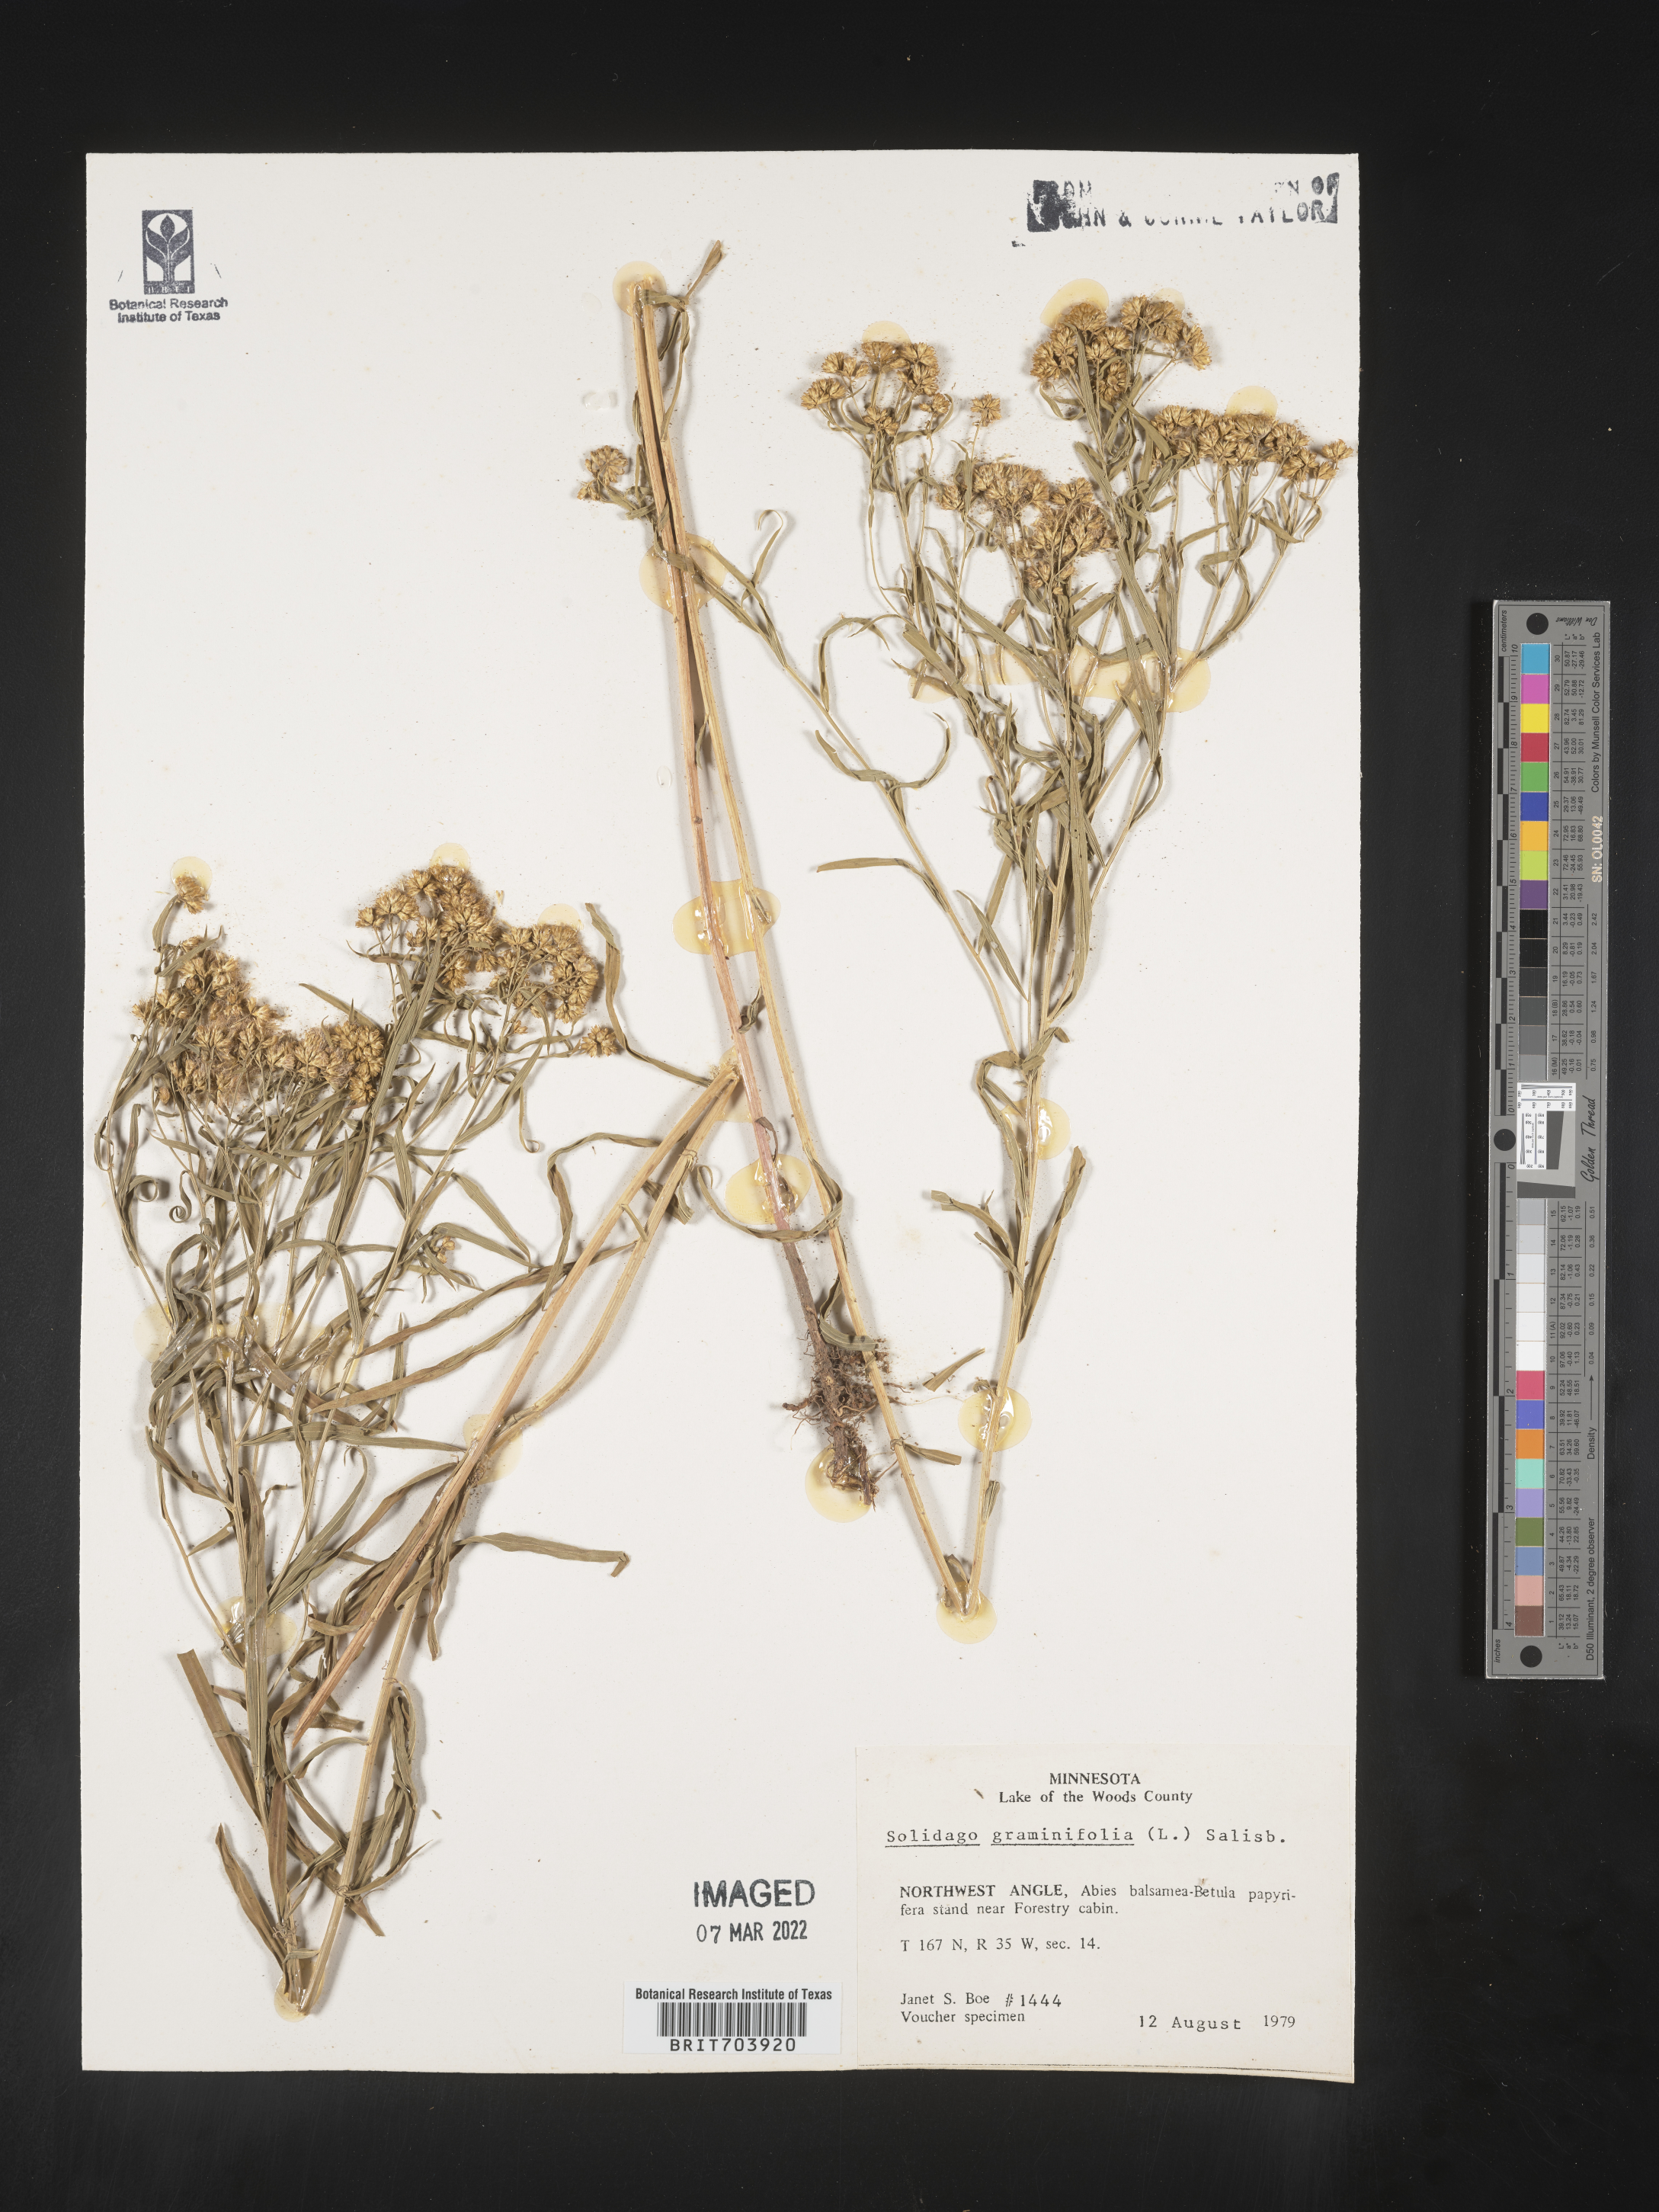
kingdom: Plantae
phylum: Tracheophyta
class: Magnoliopsida
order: Asterales
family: Asteraceae
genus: Euthamia
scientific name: Euthamia graminifolia
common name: Common goldentop
